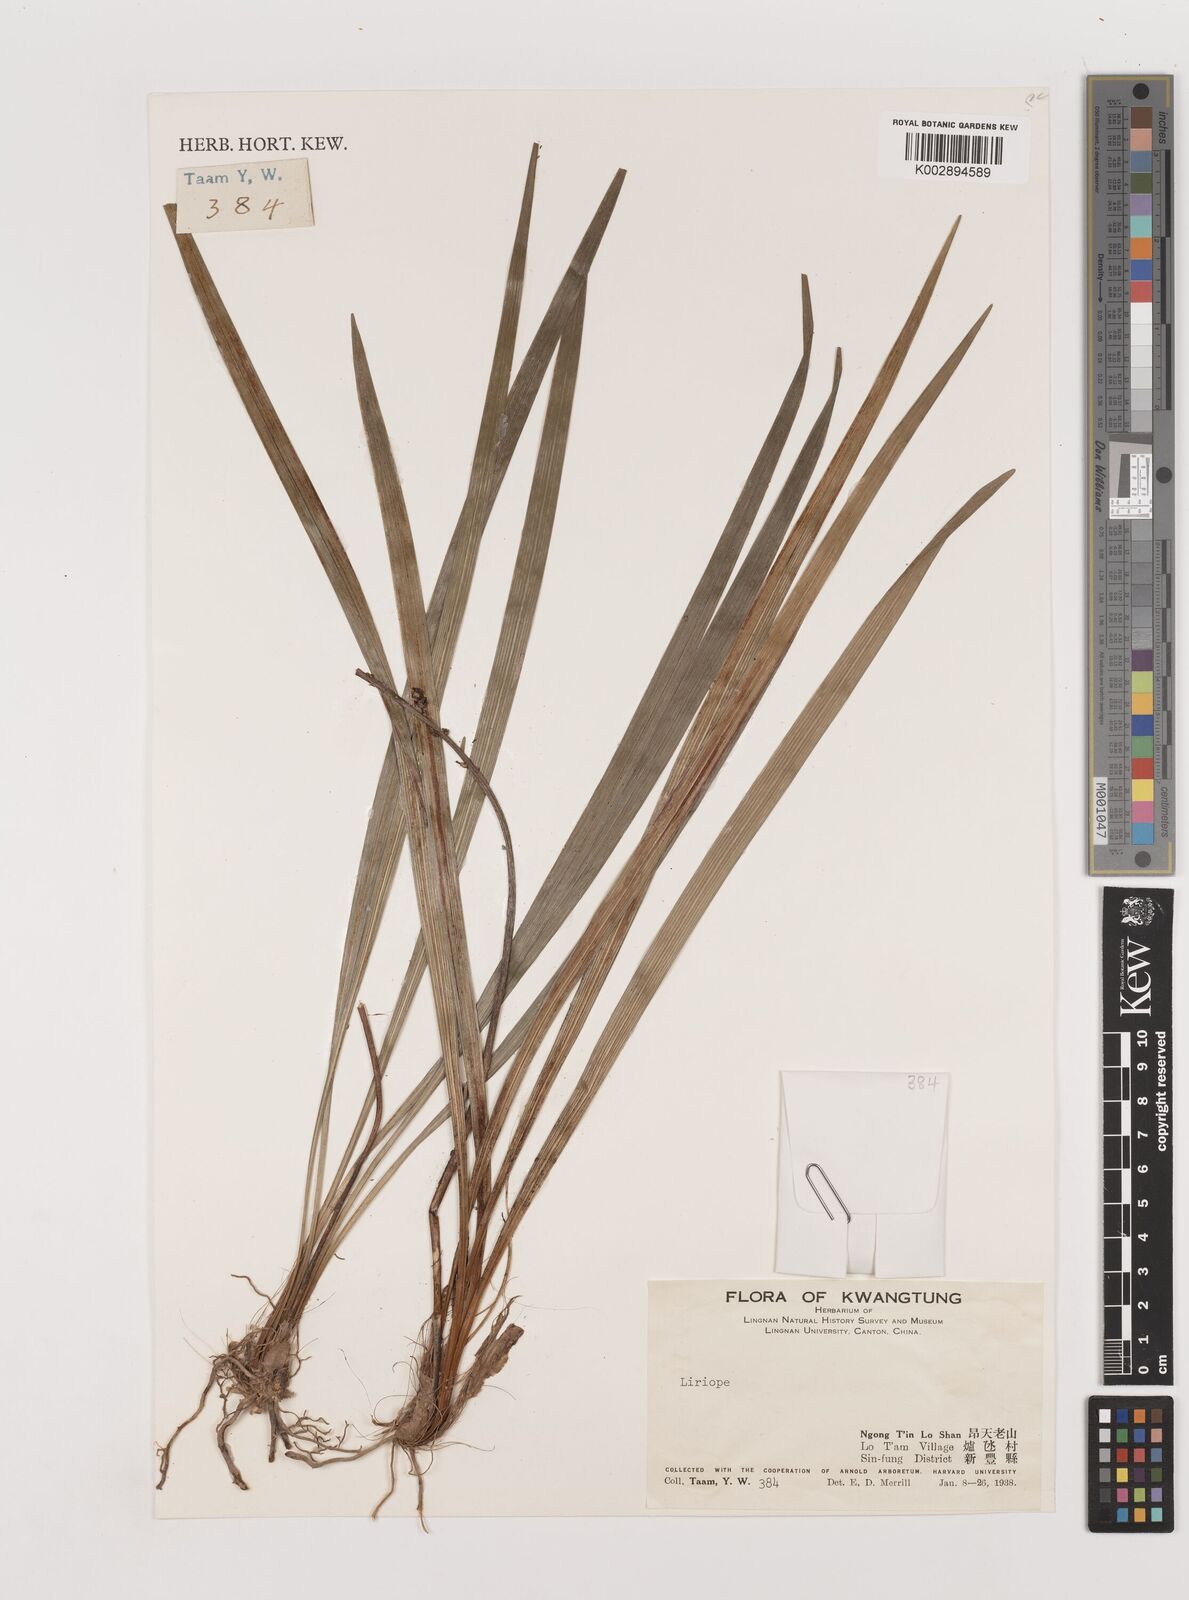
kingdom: Plantae
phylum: Tracheophyta
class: Liliopsida
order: Asparagales
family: Asparagaceae
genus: Liriope
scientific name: Liriope
